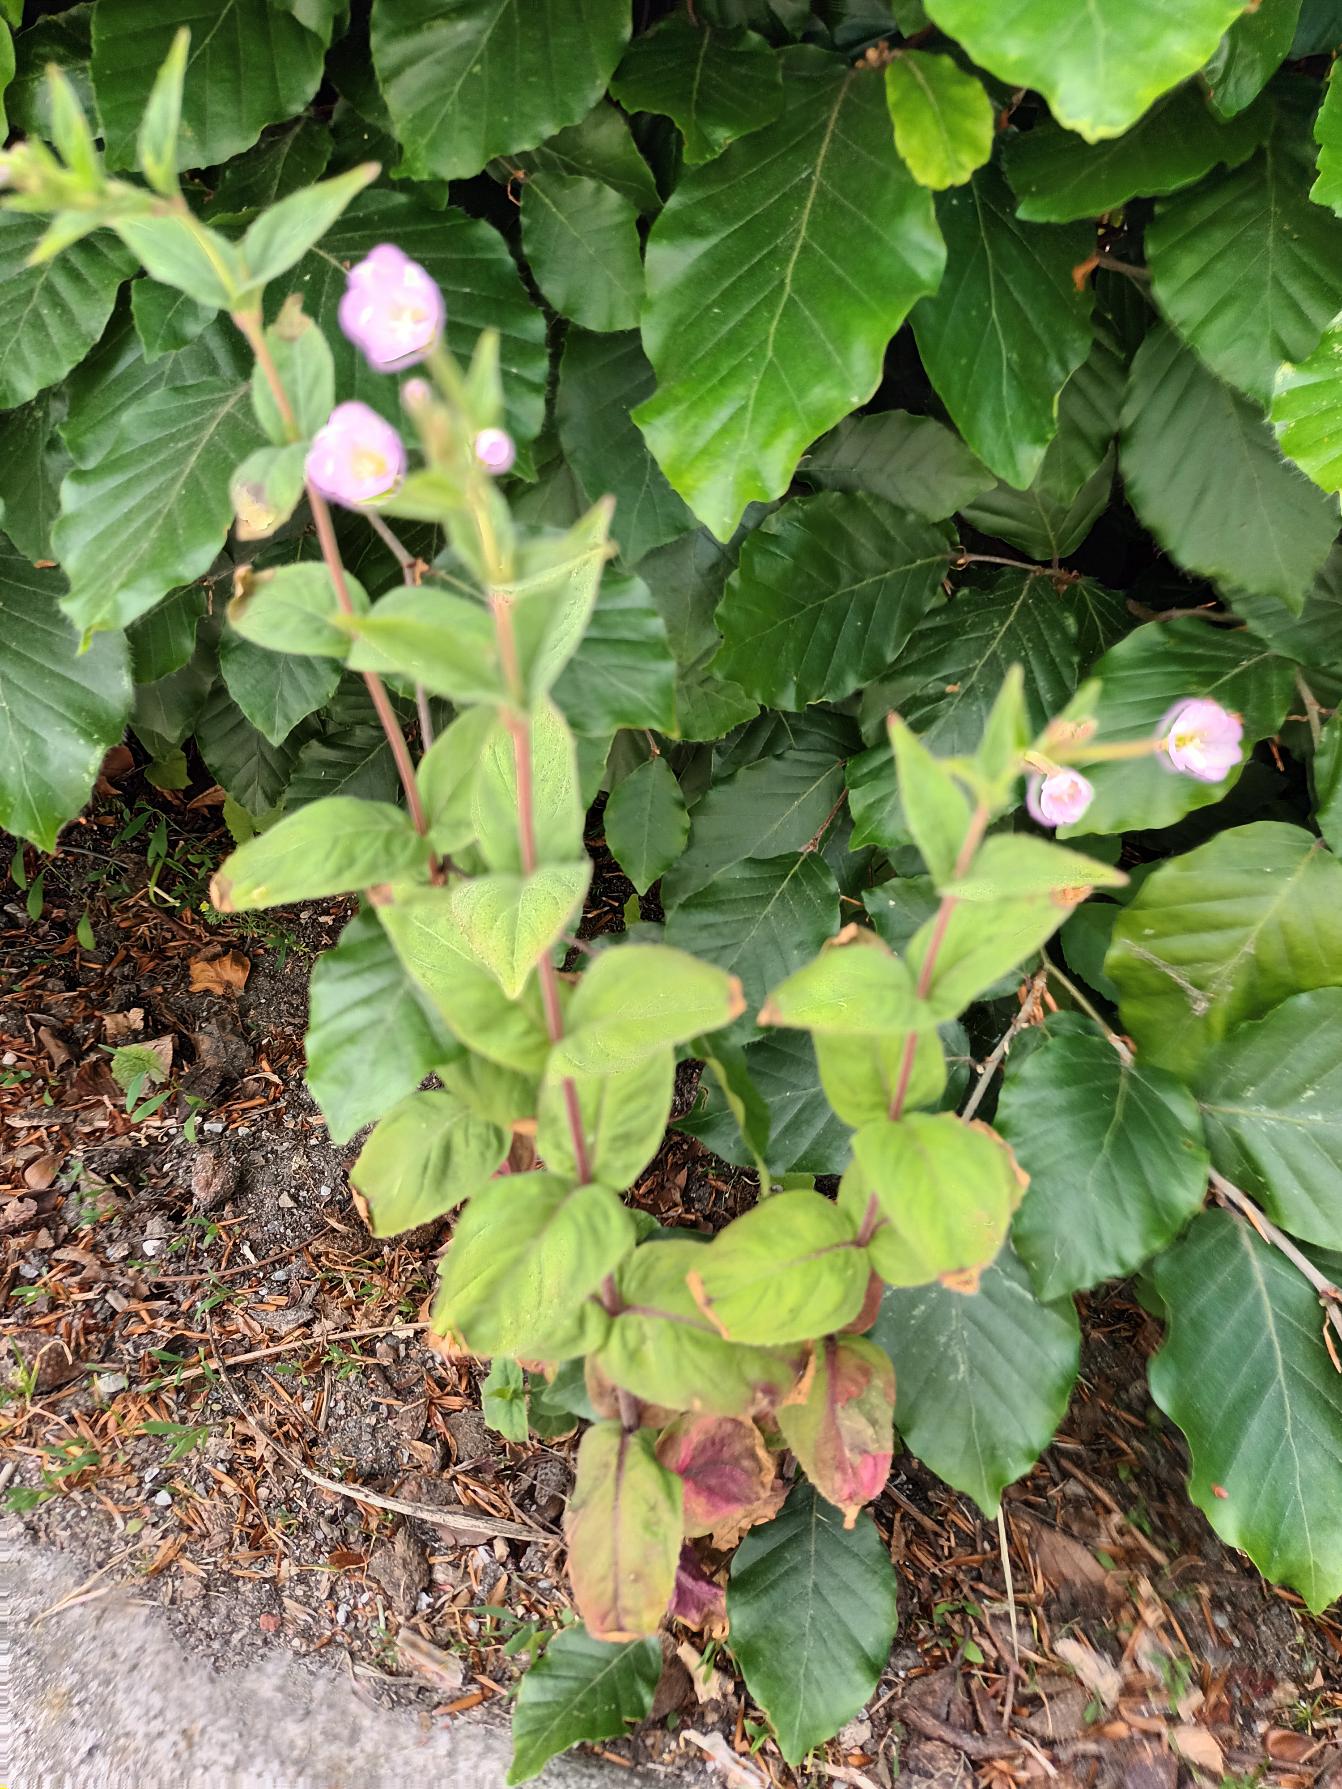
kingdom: Plantae
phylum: Tracheophyta
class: Magnoliopsida
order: Myrtales
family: Onagraceae
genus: Epilobium
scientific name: Epilobium montanum
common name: Glat dueurt
